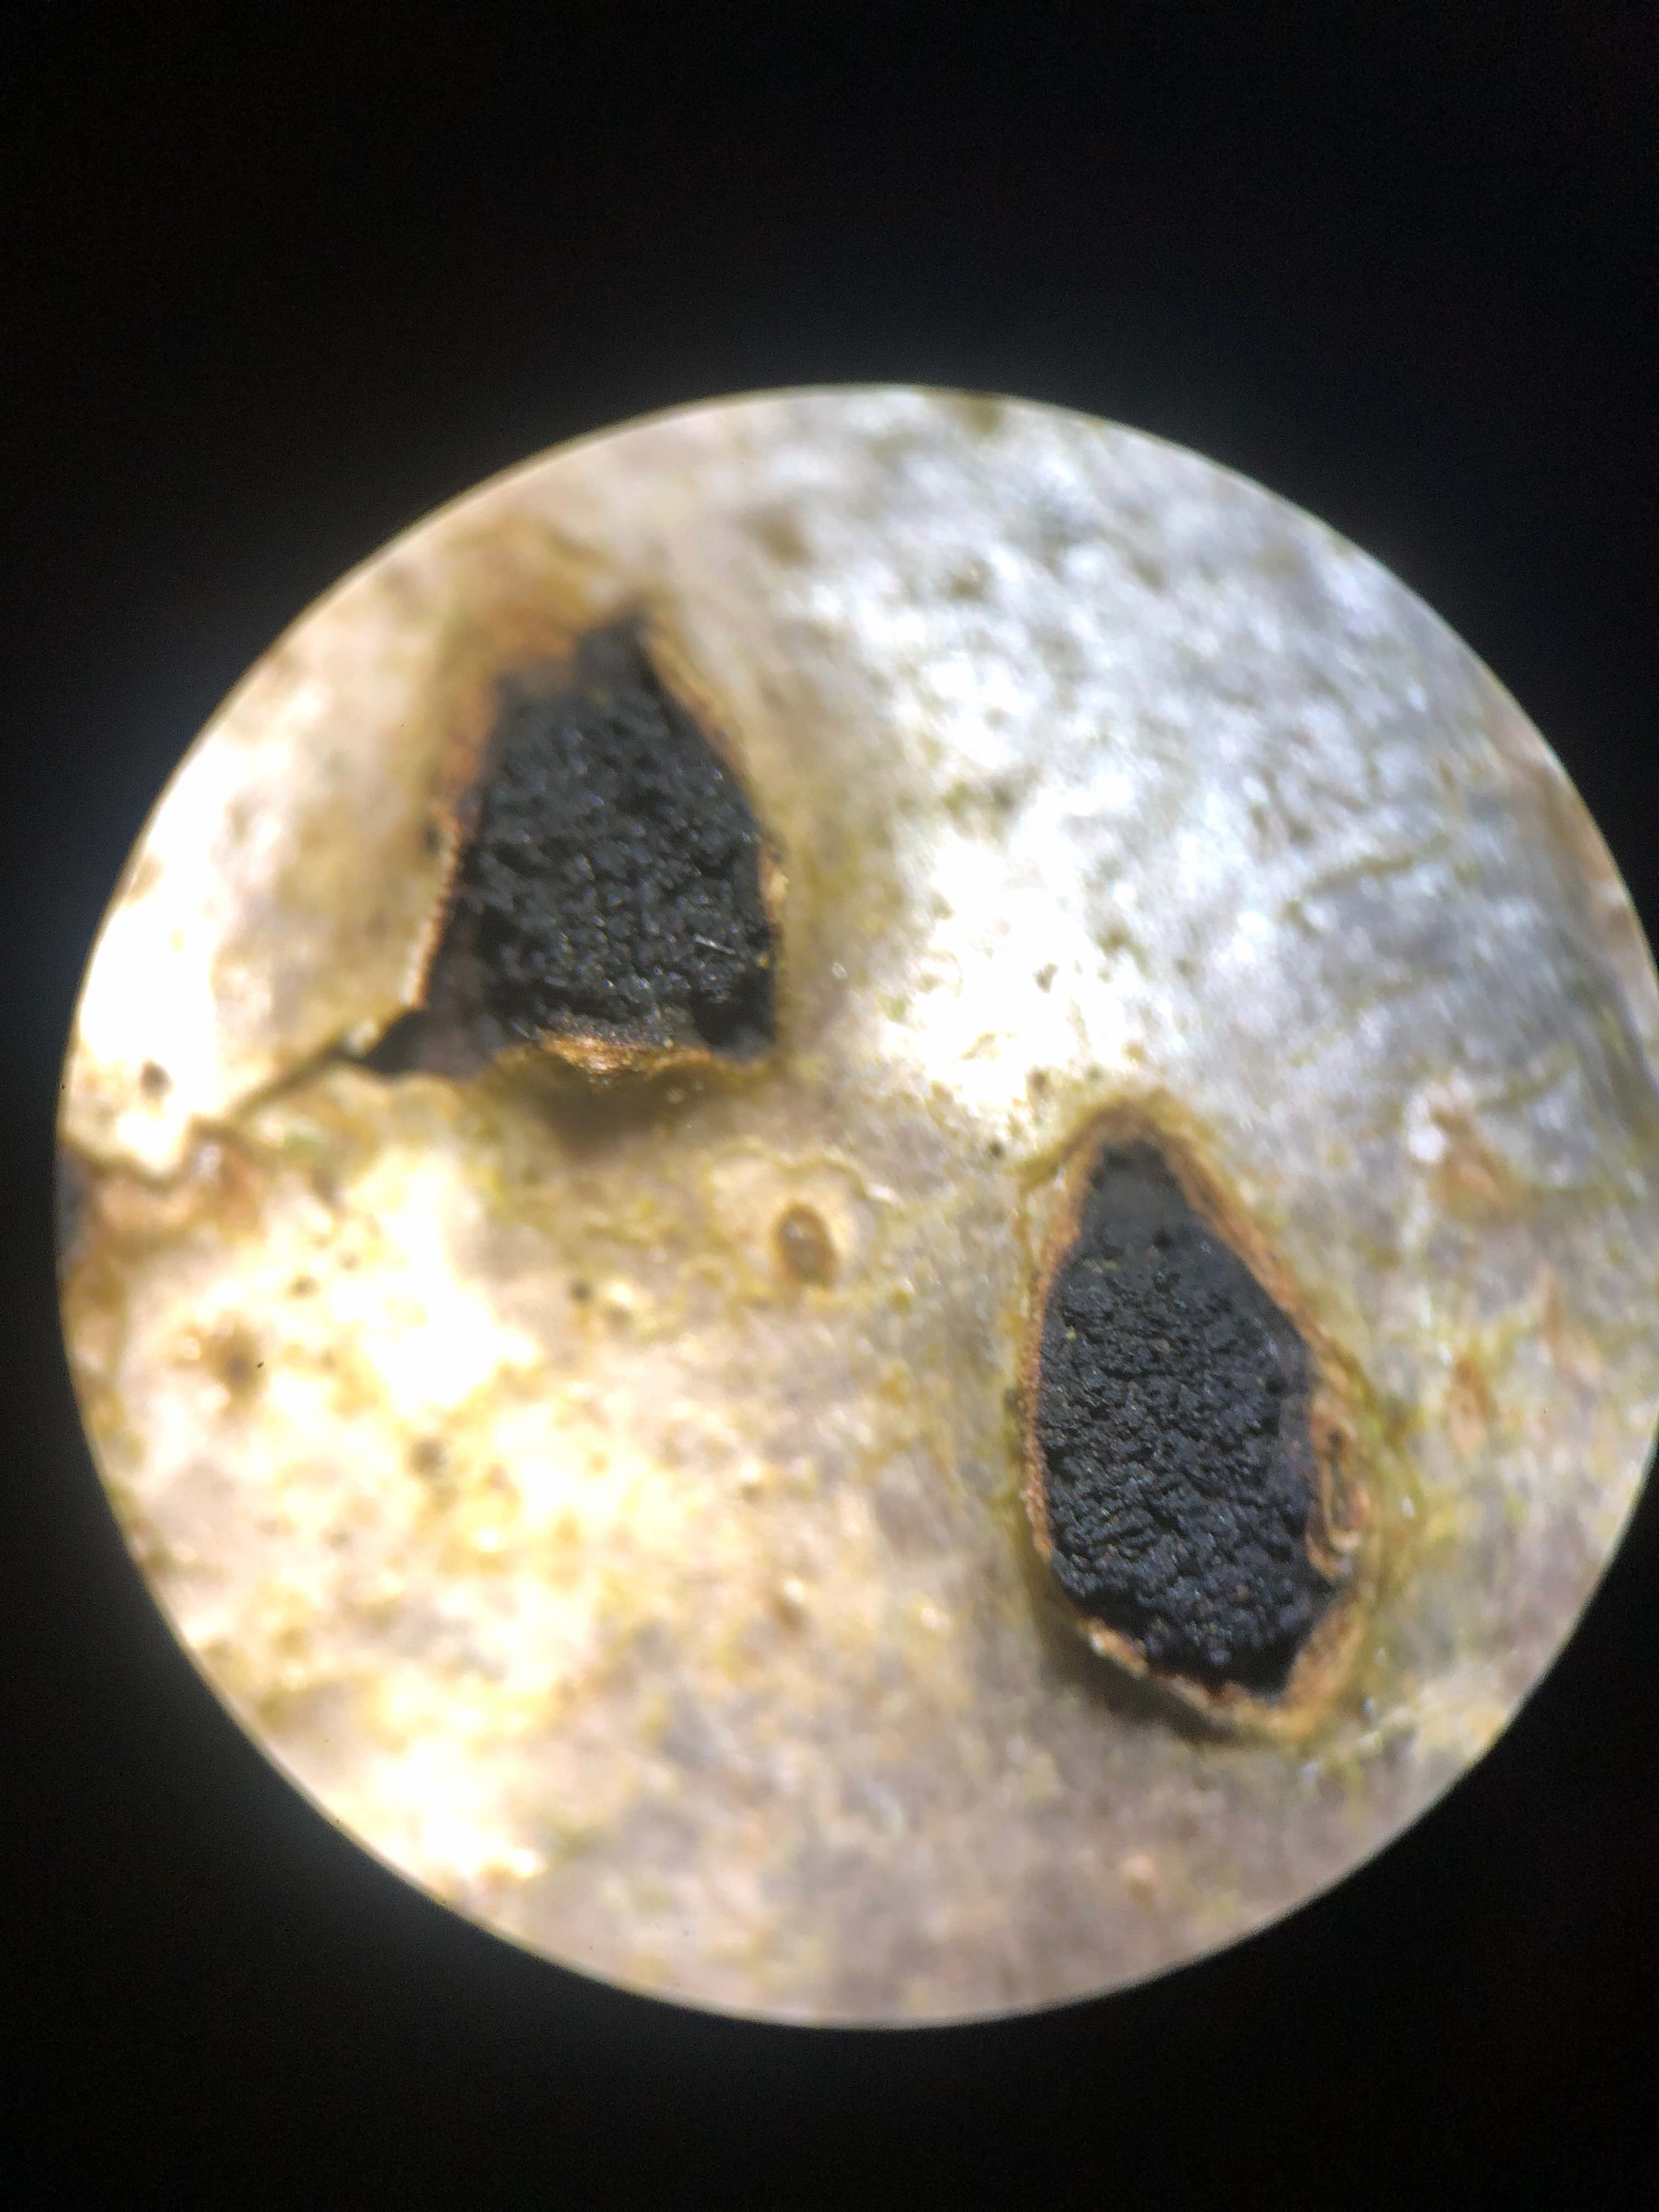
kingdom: Fungi
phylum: Ascomycota
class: Sordariomycetes
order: Xylariales
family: Diatrypaceae
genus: Eutypella
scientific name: Eutypella sorbi
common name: rønne-kulskorpe
